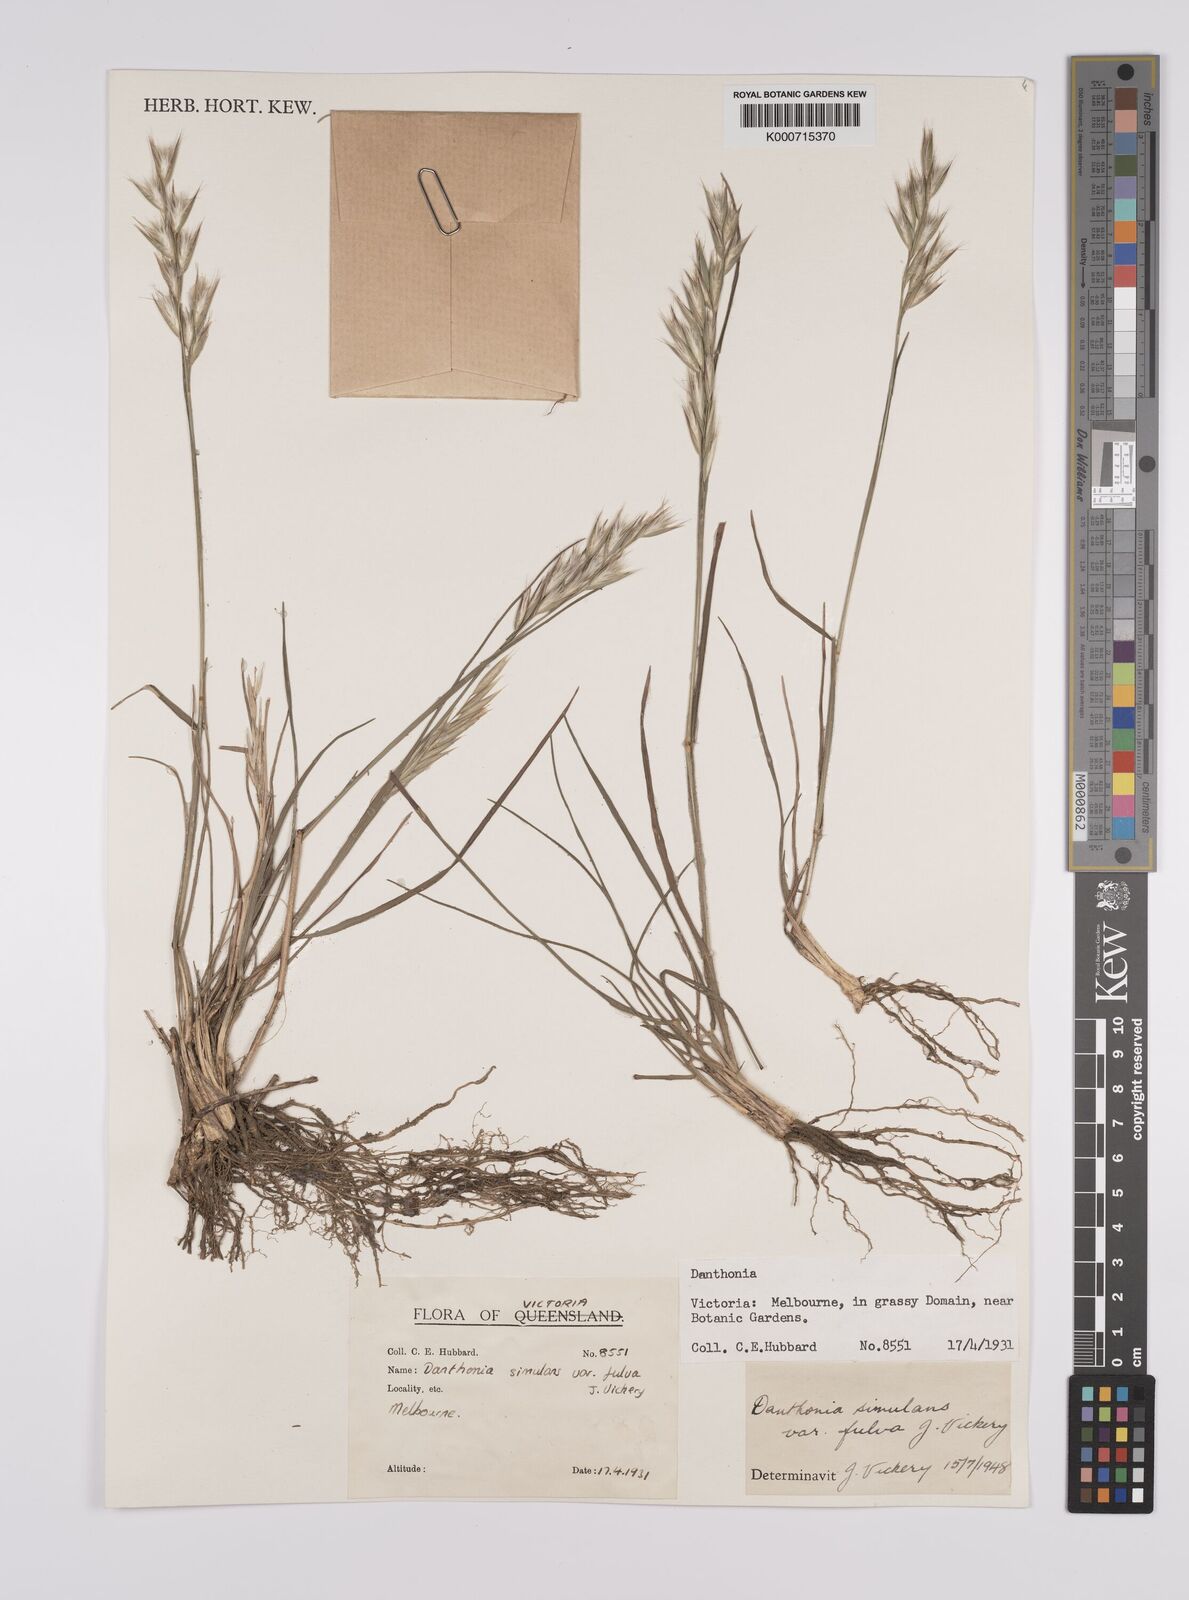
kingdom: Plantae
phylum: Tracheophyta
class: Liliopsida
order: Poales
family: Poaceae
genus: Rytidosperma
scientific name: Rytidosperma bipartitum
